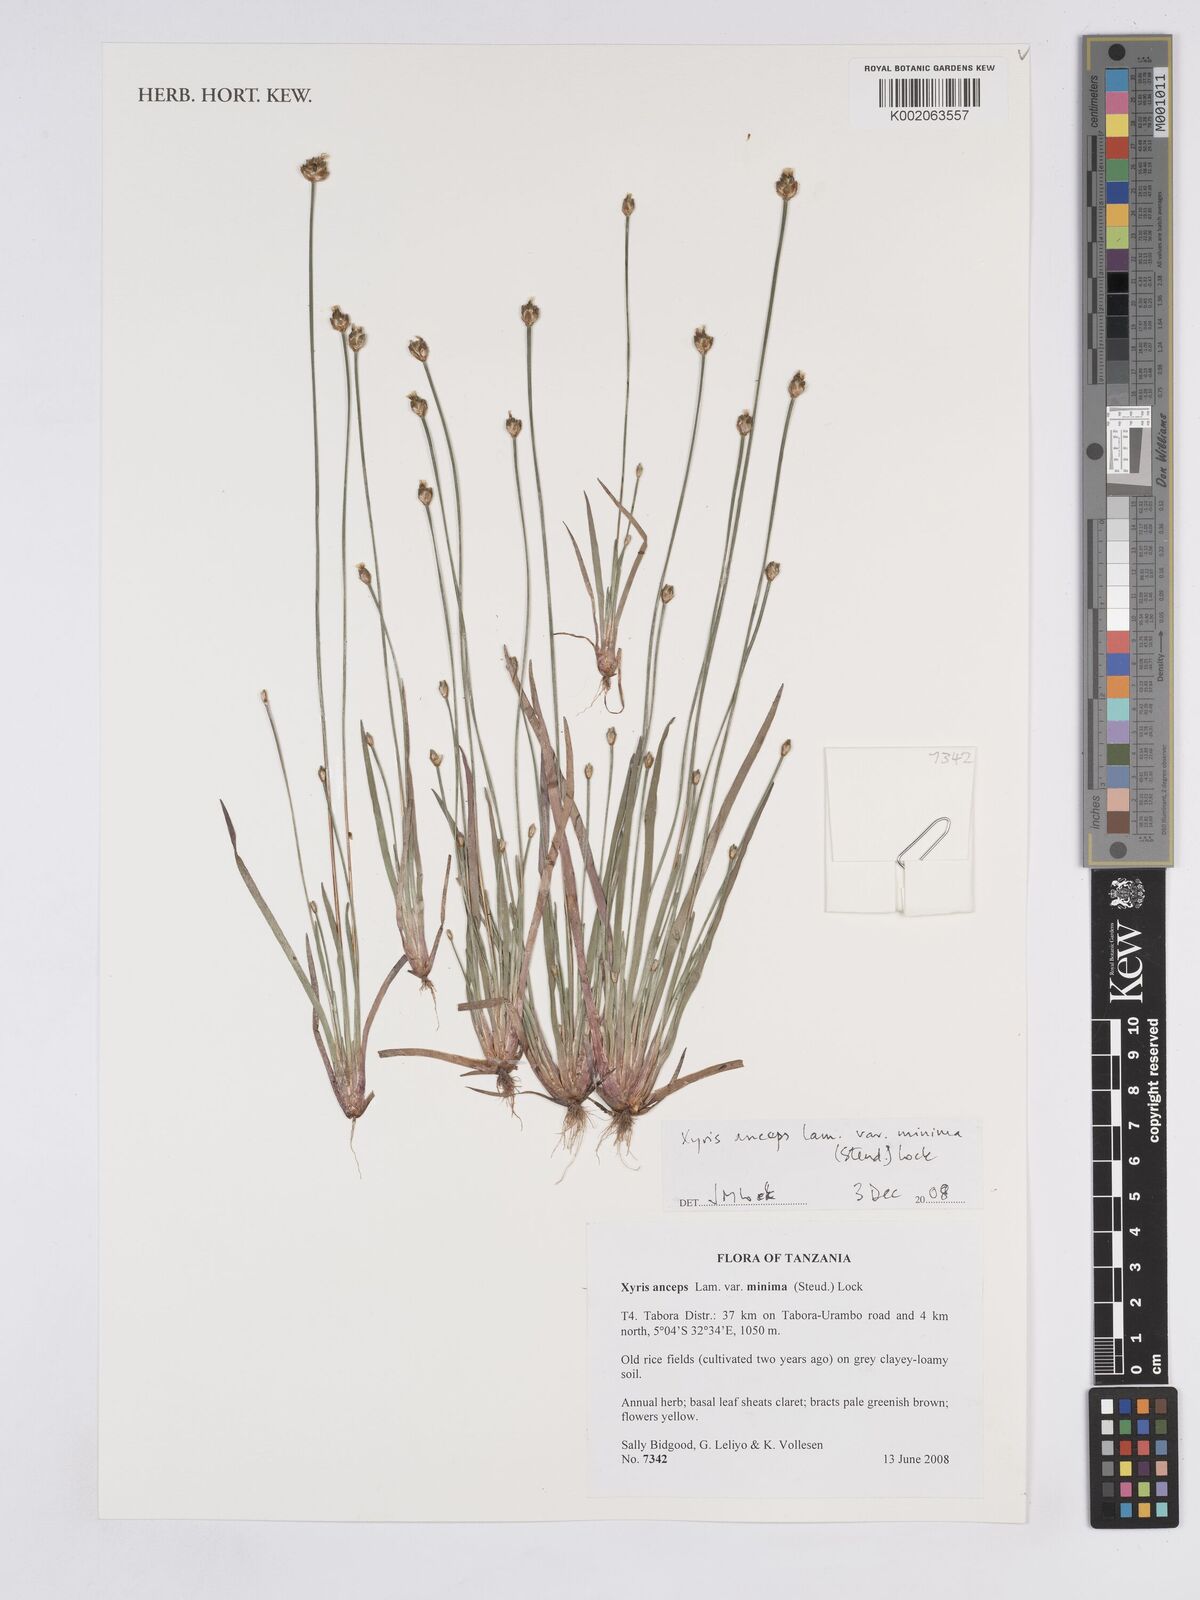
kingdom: Plantae
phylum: Tracheophyta
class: Liliopsida
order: Poales
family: Xyridaceae
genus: Xyris
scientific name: Xyris anceps
